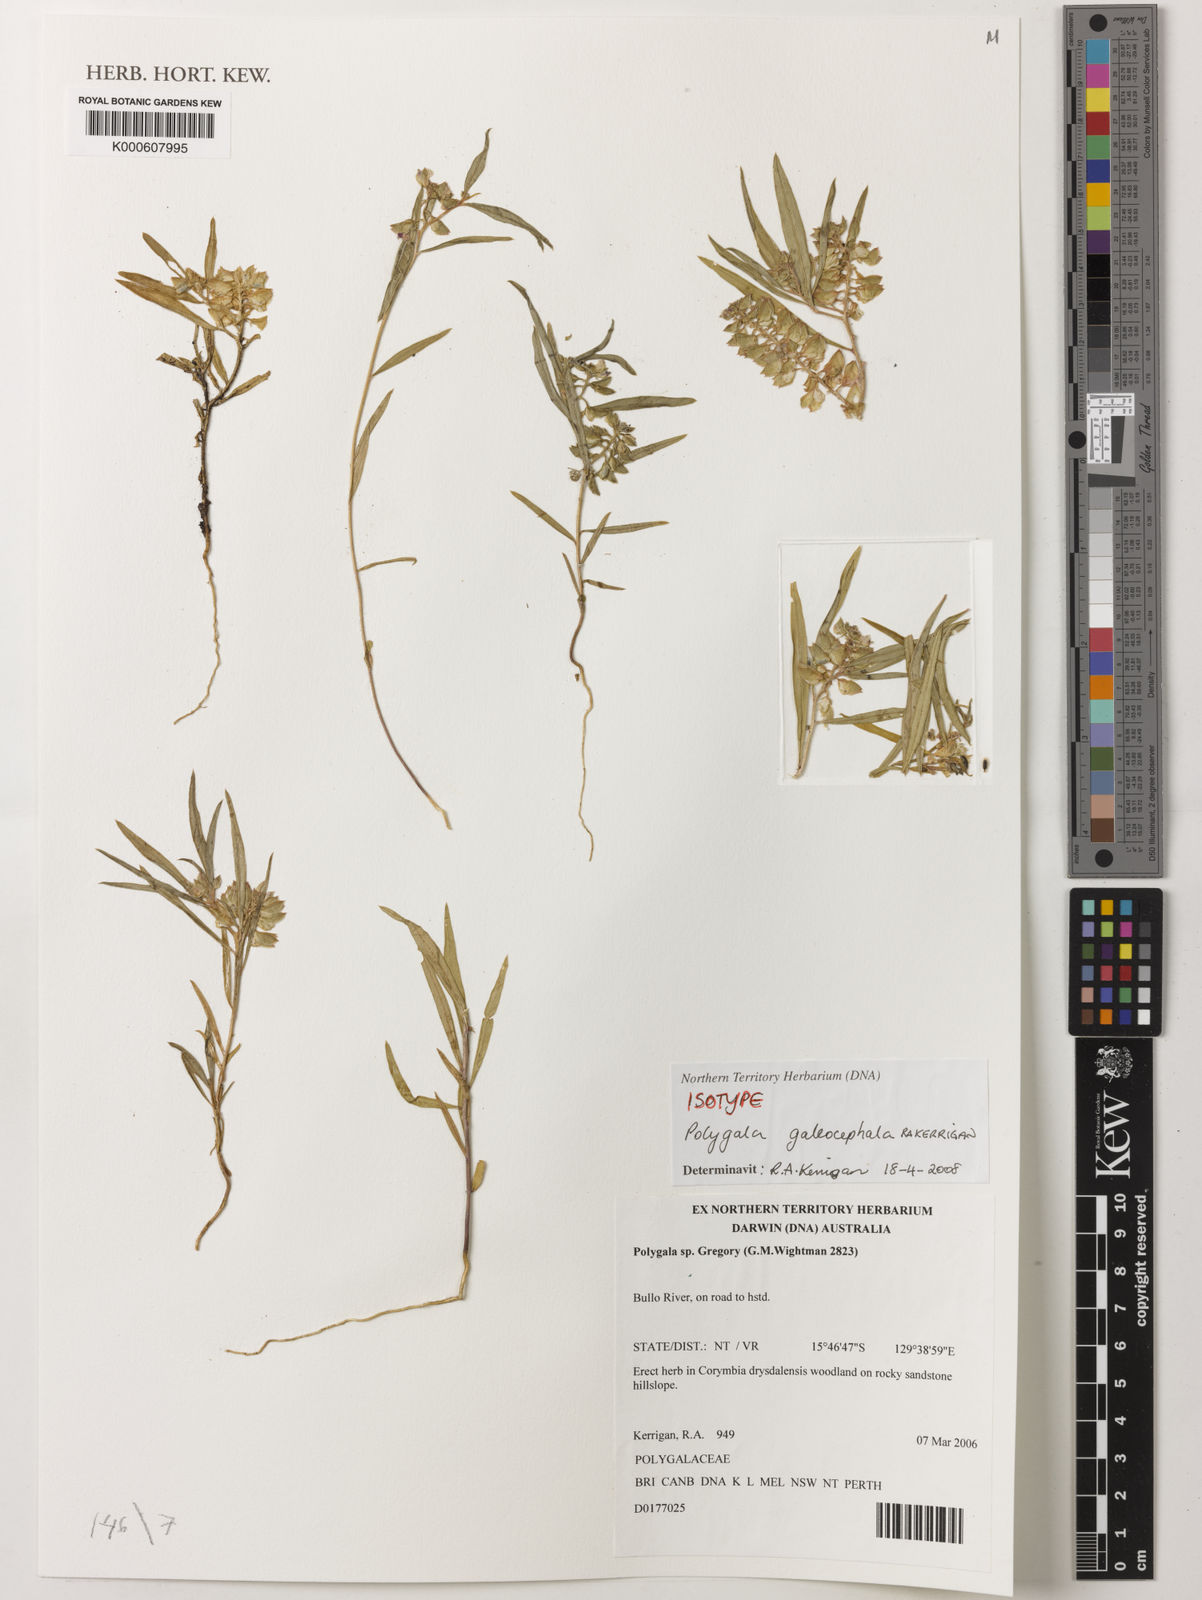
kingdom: Plantae
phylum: Tracheophyta
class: Magnoliopsida
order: Fabales
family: Polygalaceae
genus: Polygala
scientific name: Polygala galeocephala
